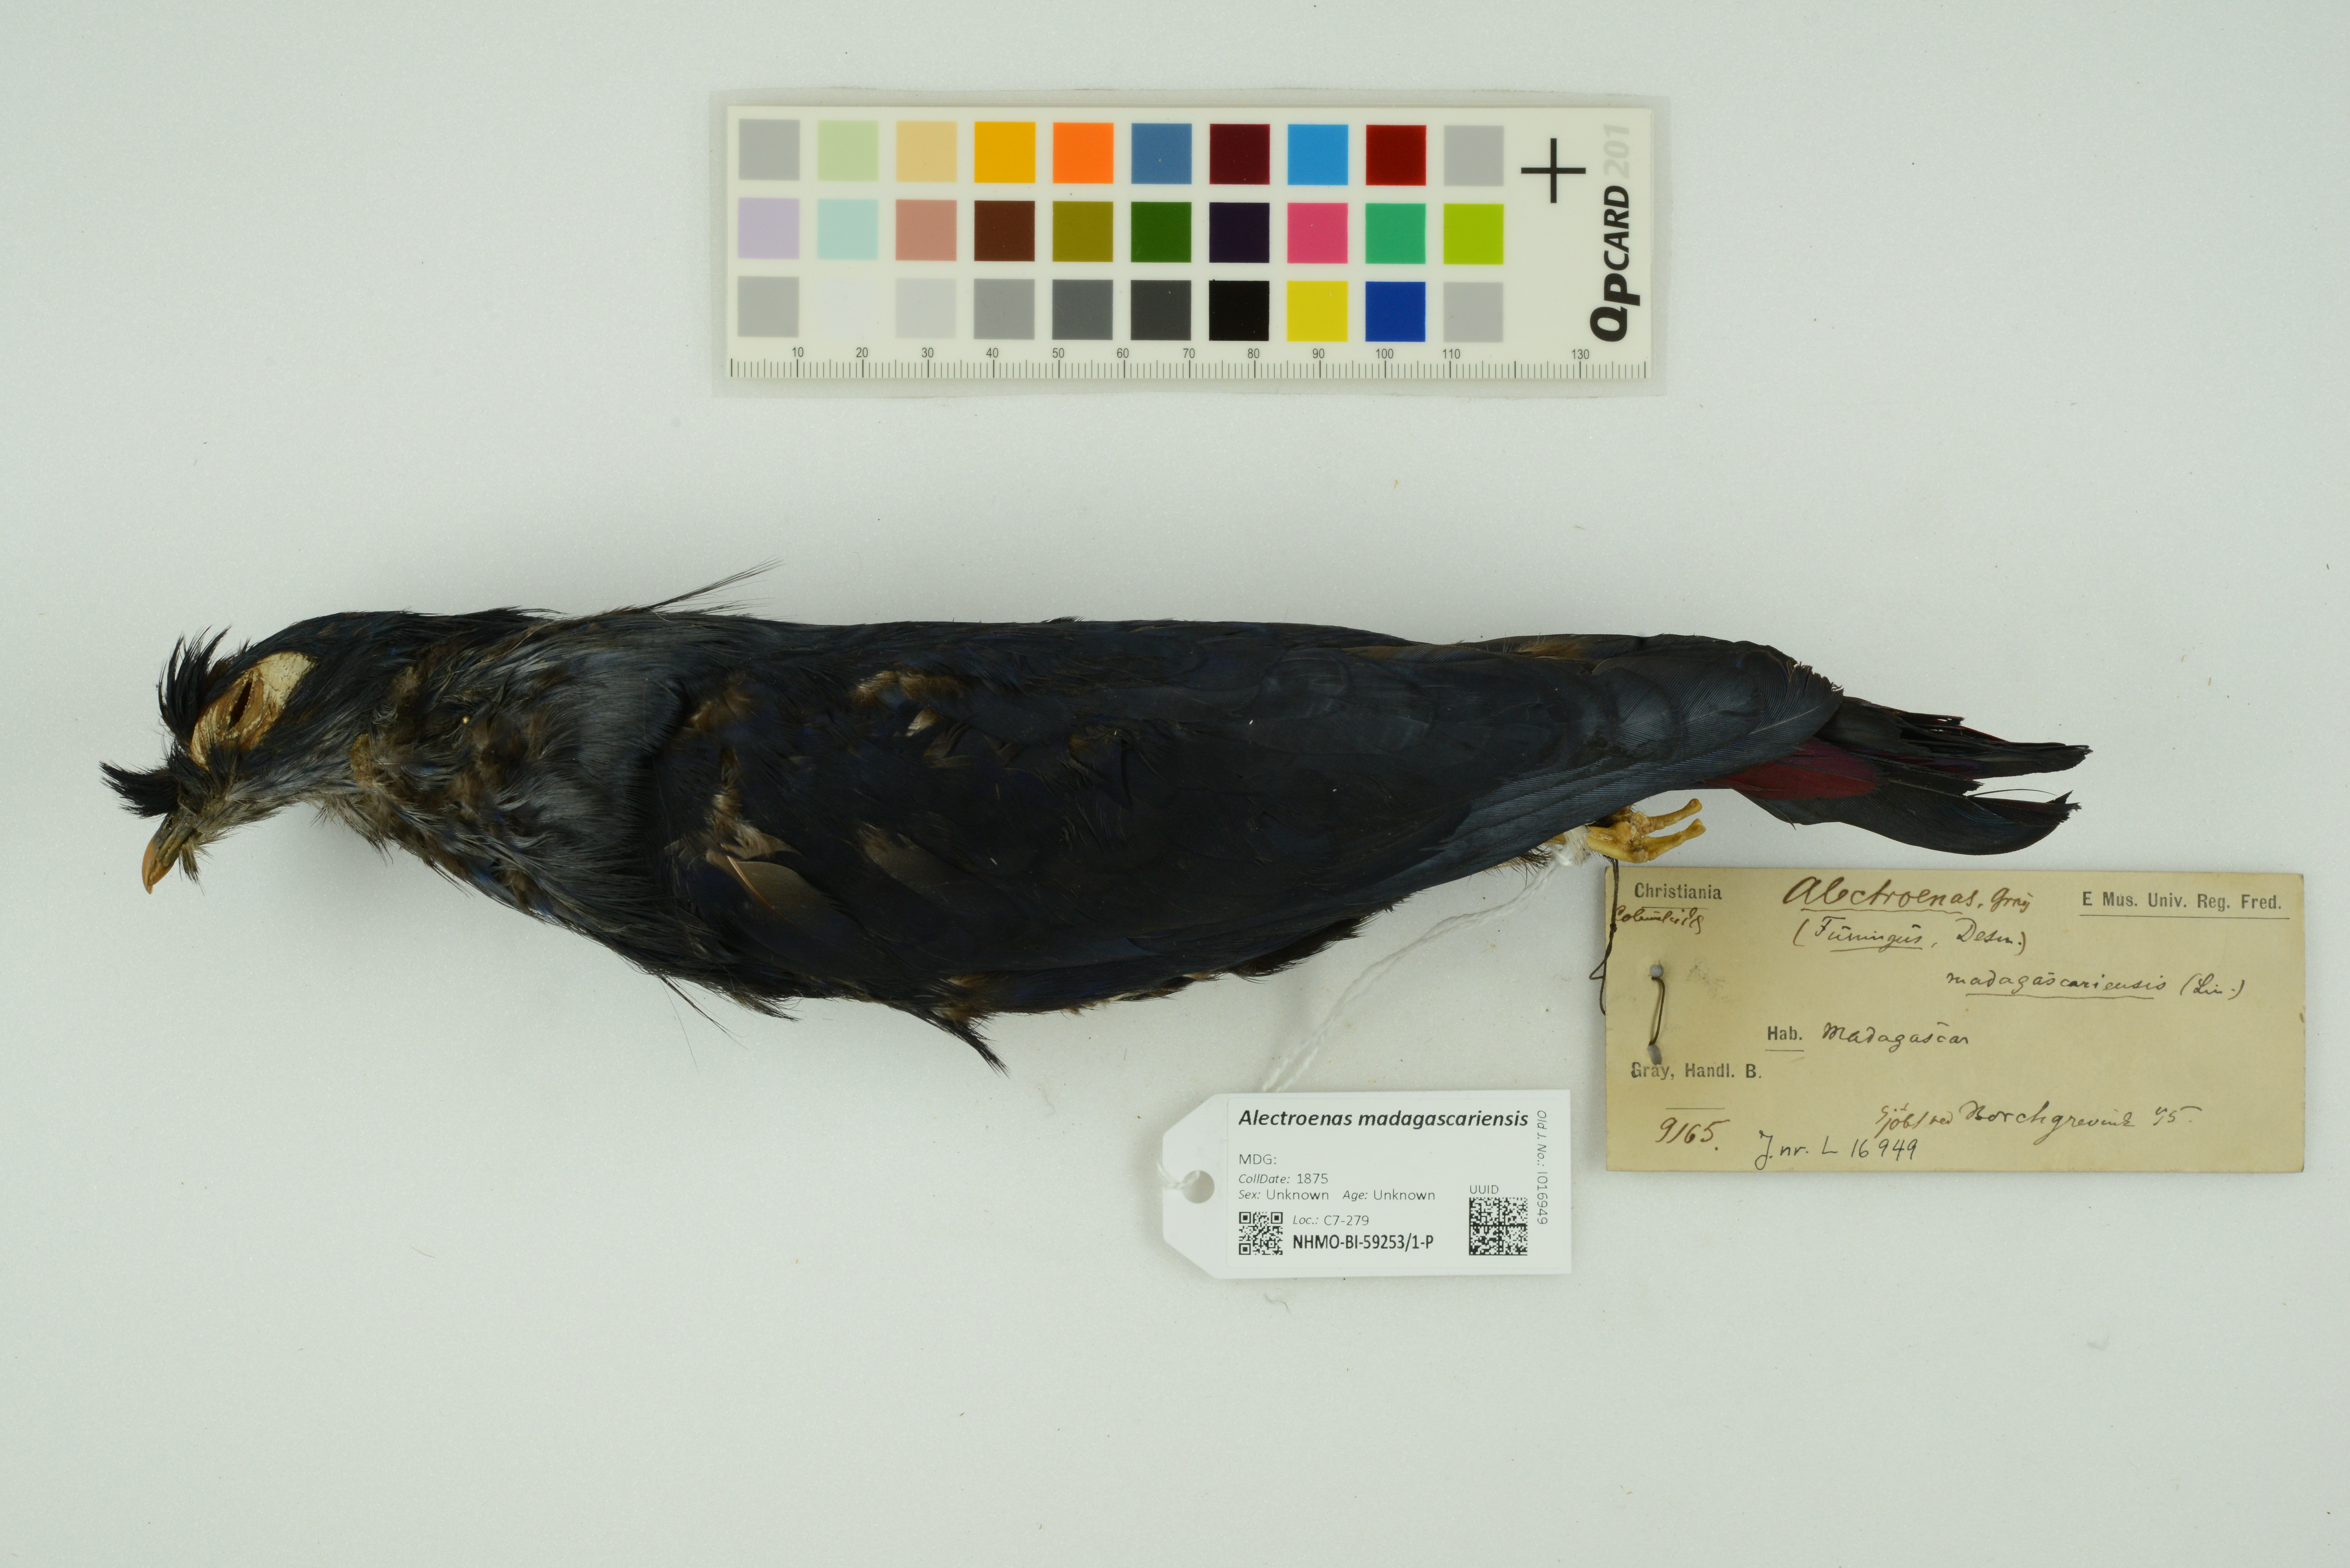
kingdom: Animalia
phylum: Chordata
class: Aves
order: Columbiformes
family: Columbidae
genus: Alectroenas
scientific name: Alectroenas madagascariensis
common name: Madagascar blue pigeon
